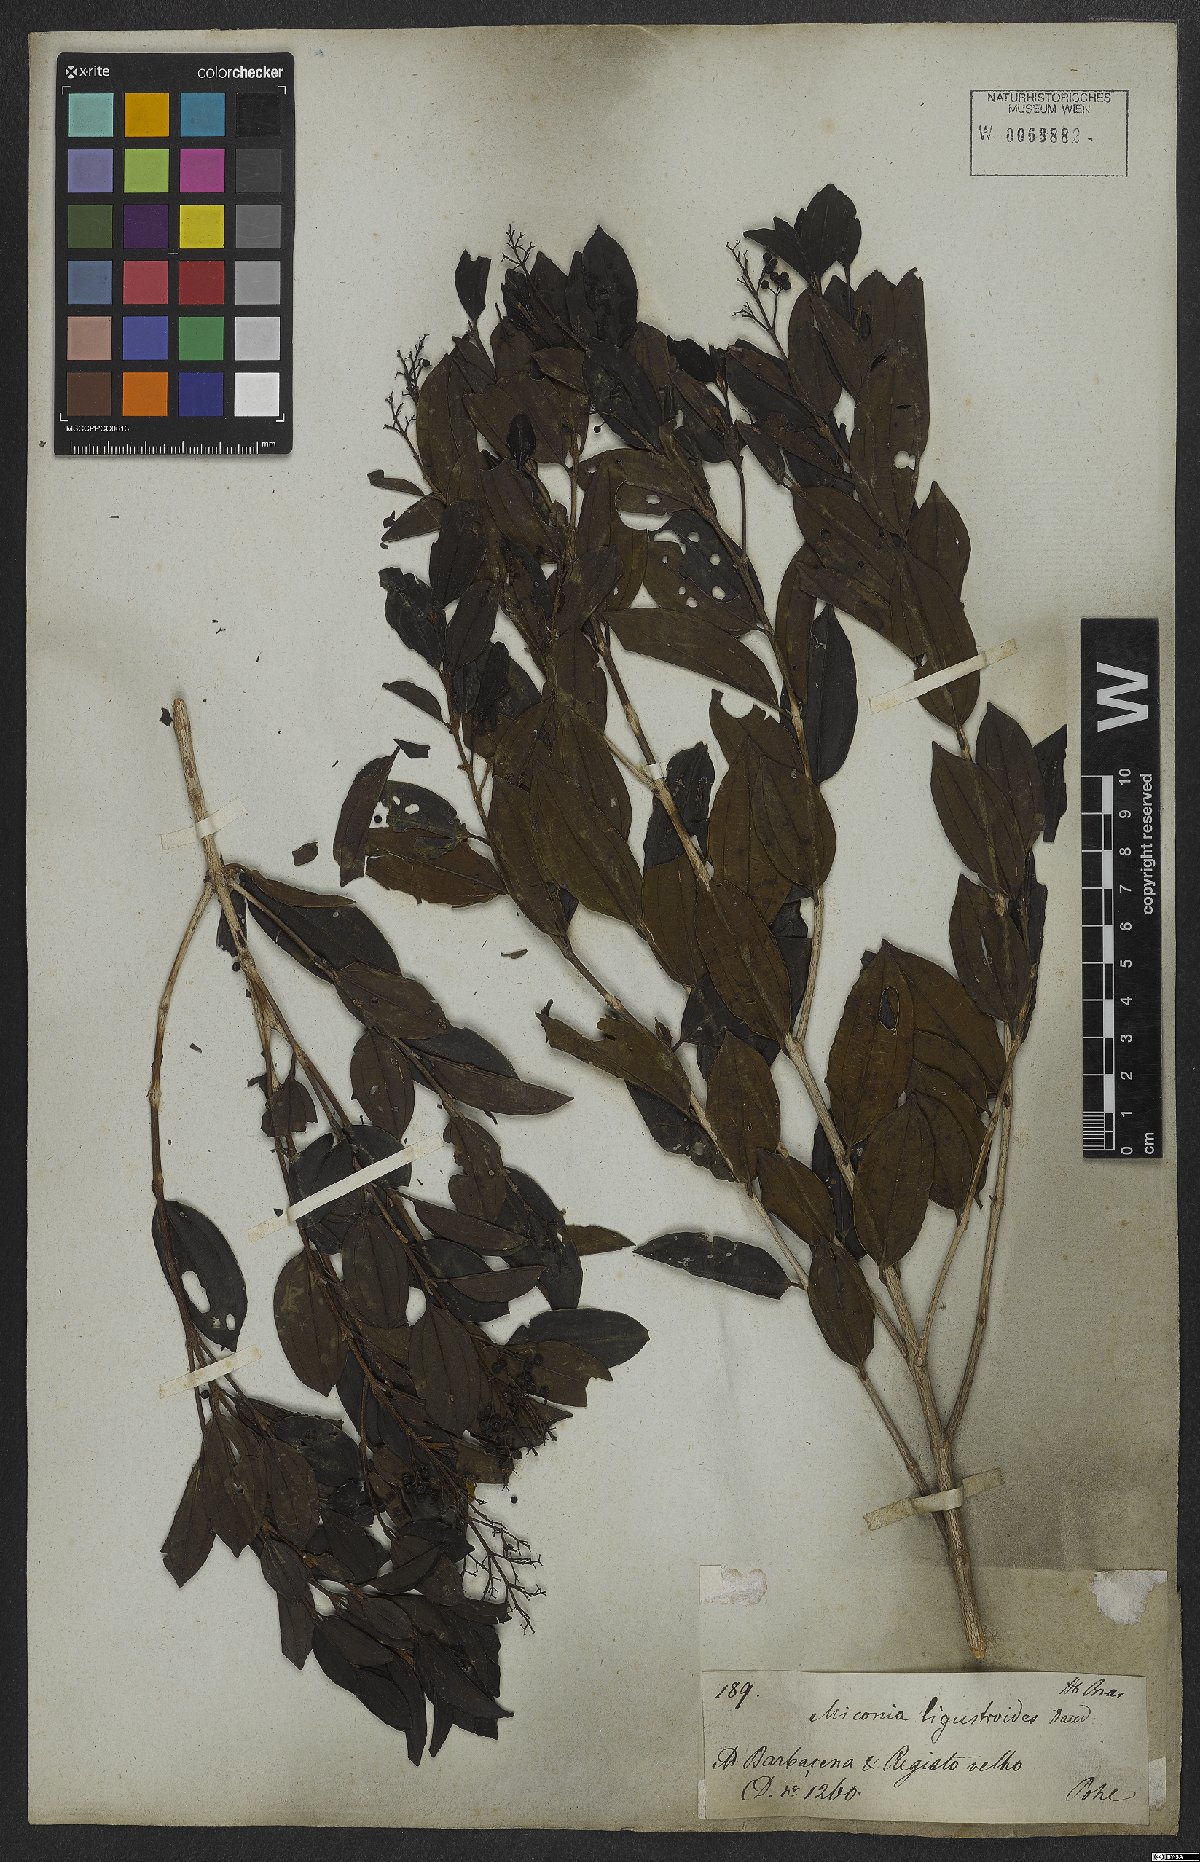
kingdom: Plantae
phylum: Tracheophyta
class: Magnoliopsida
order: Myrtales
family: Melastomataceae
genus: Miconia
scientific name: Miconia ligustroides
